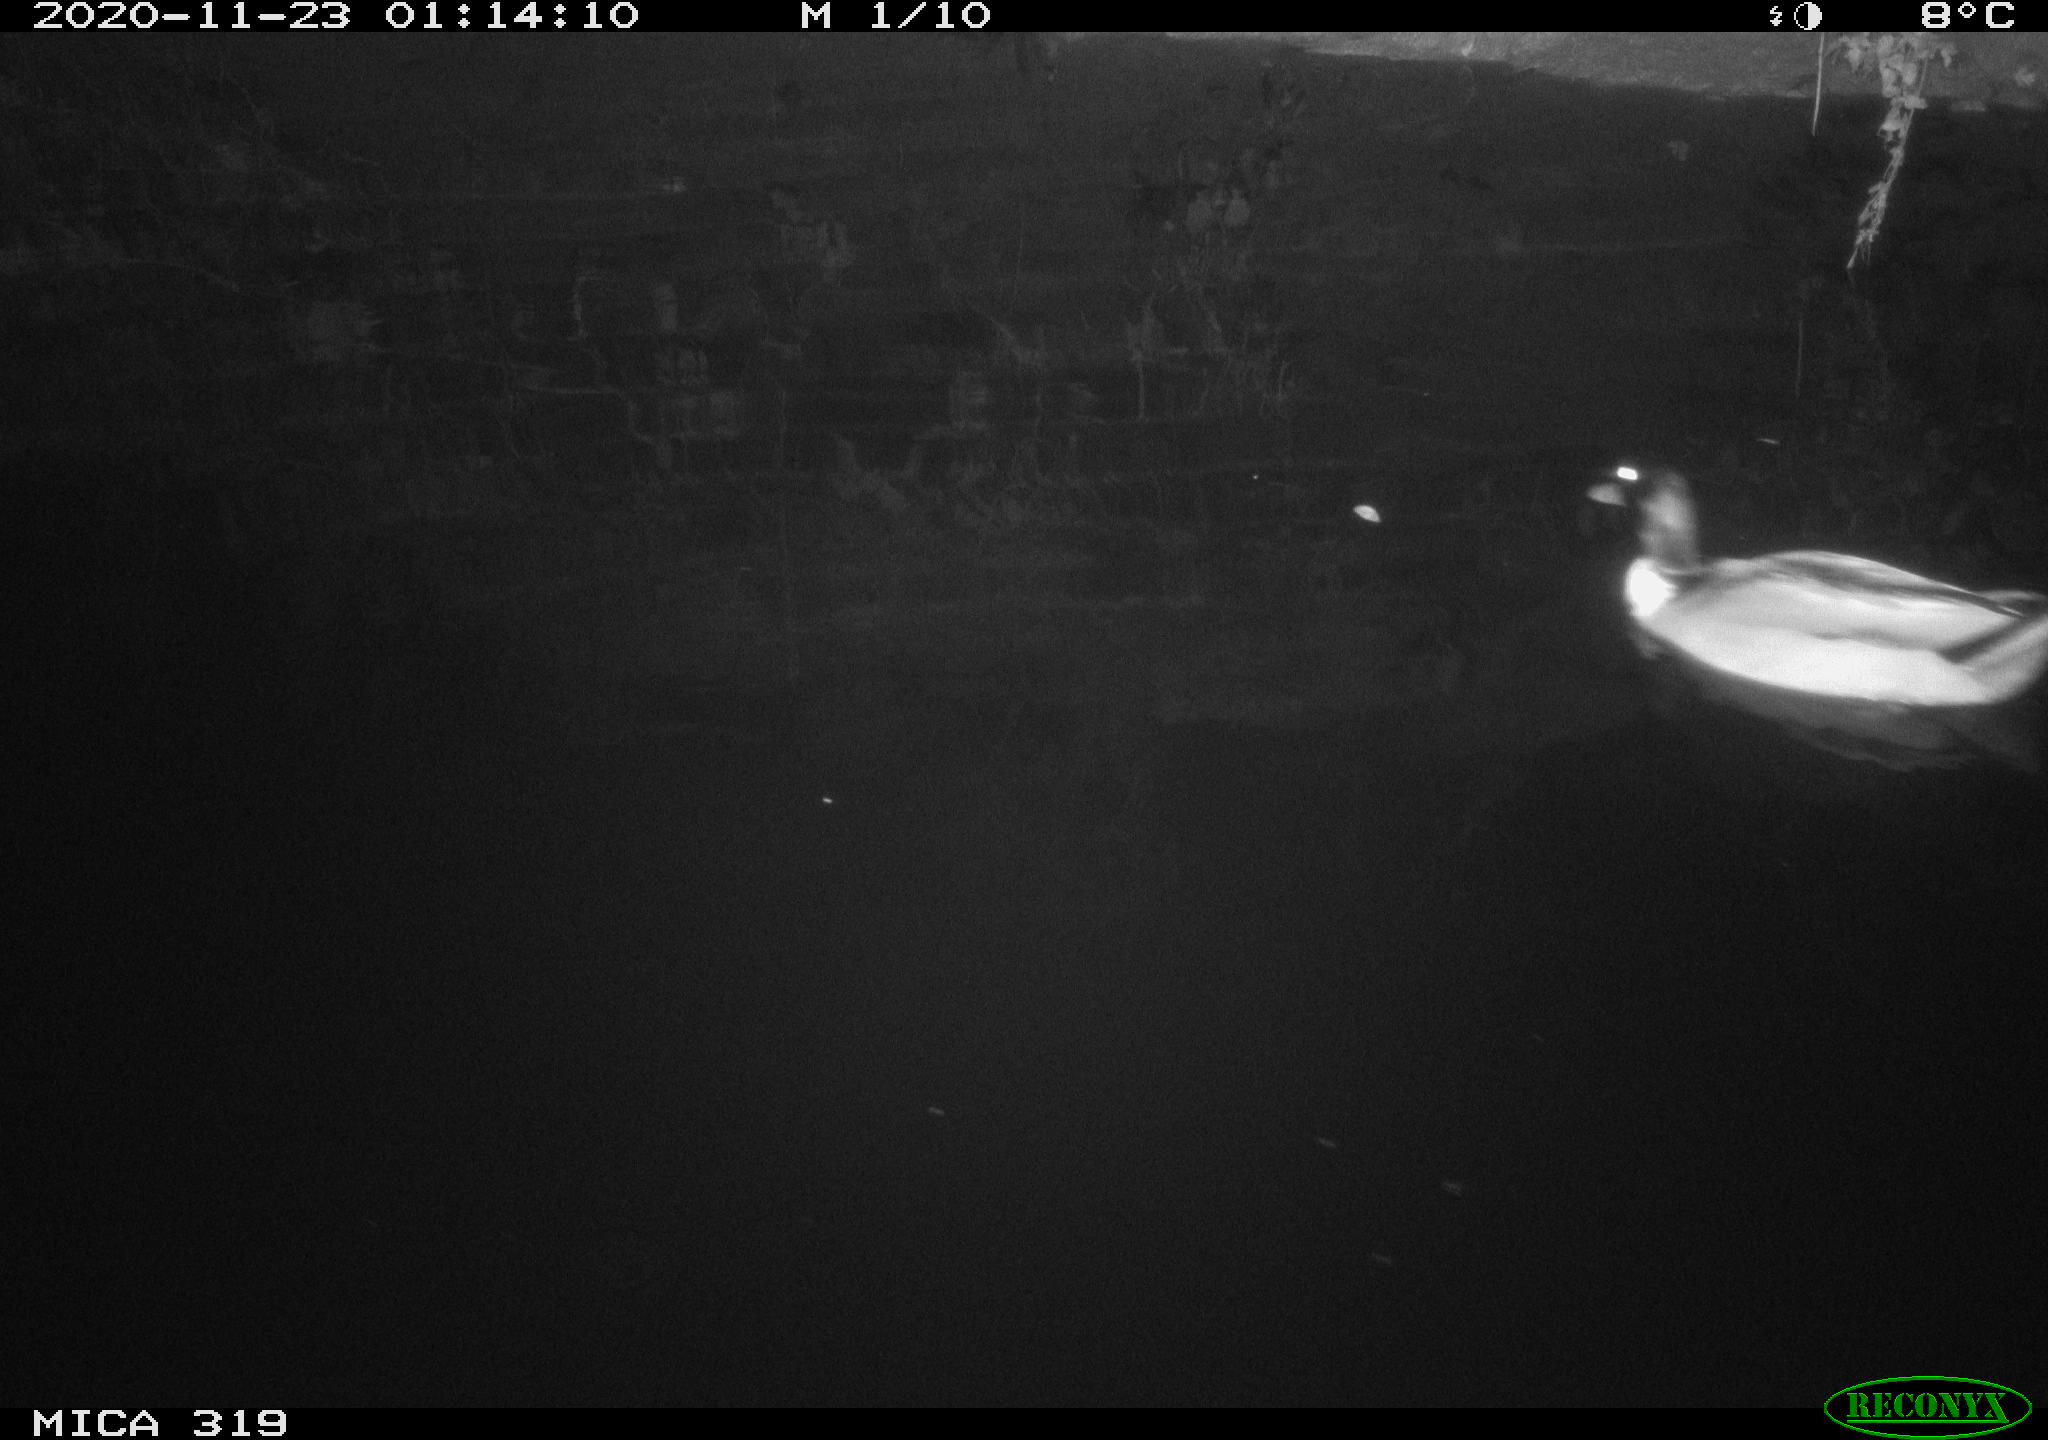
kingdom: Animalia
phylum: Chordata
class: Aves
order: Anseriformes
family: Anatidae
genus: Anas
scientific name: Anas platyrhynchos
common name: Mallard
